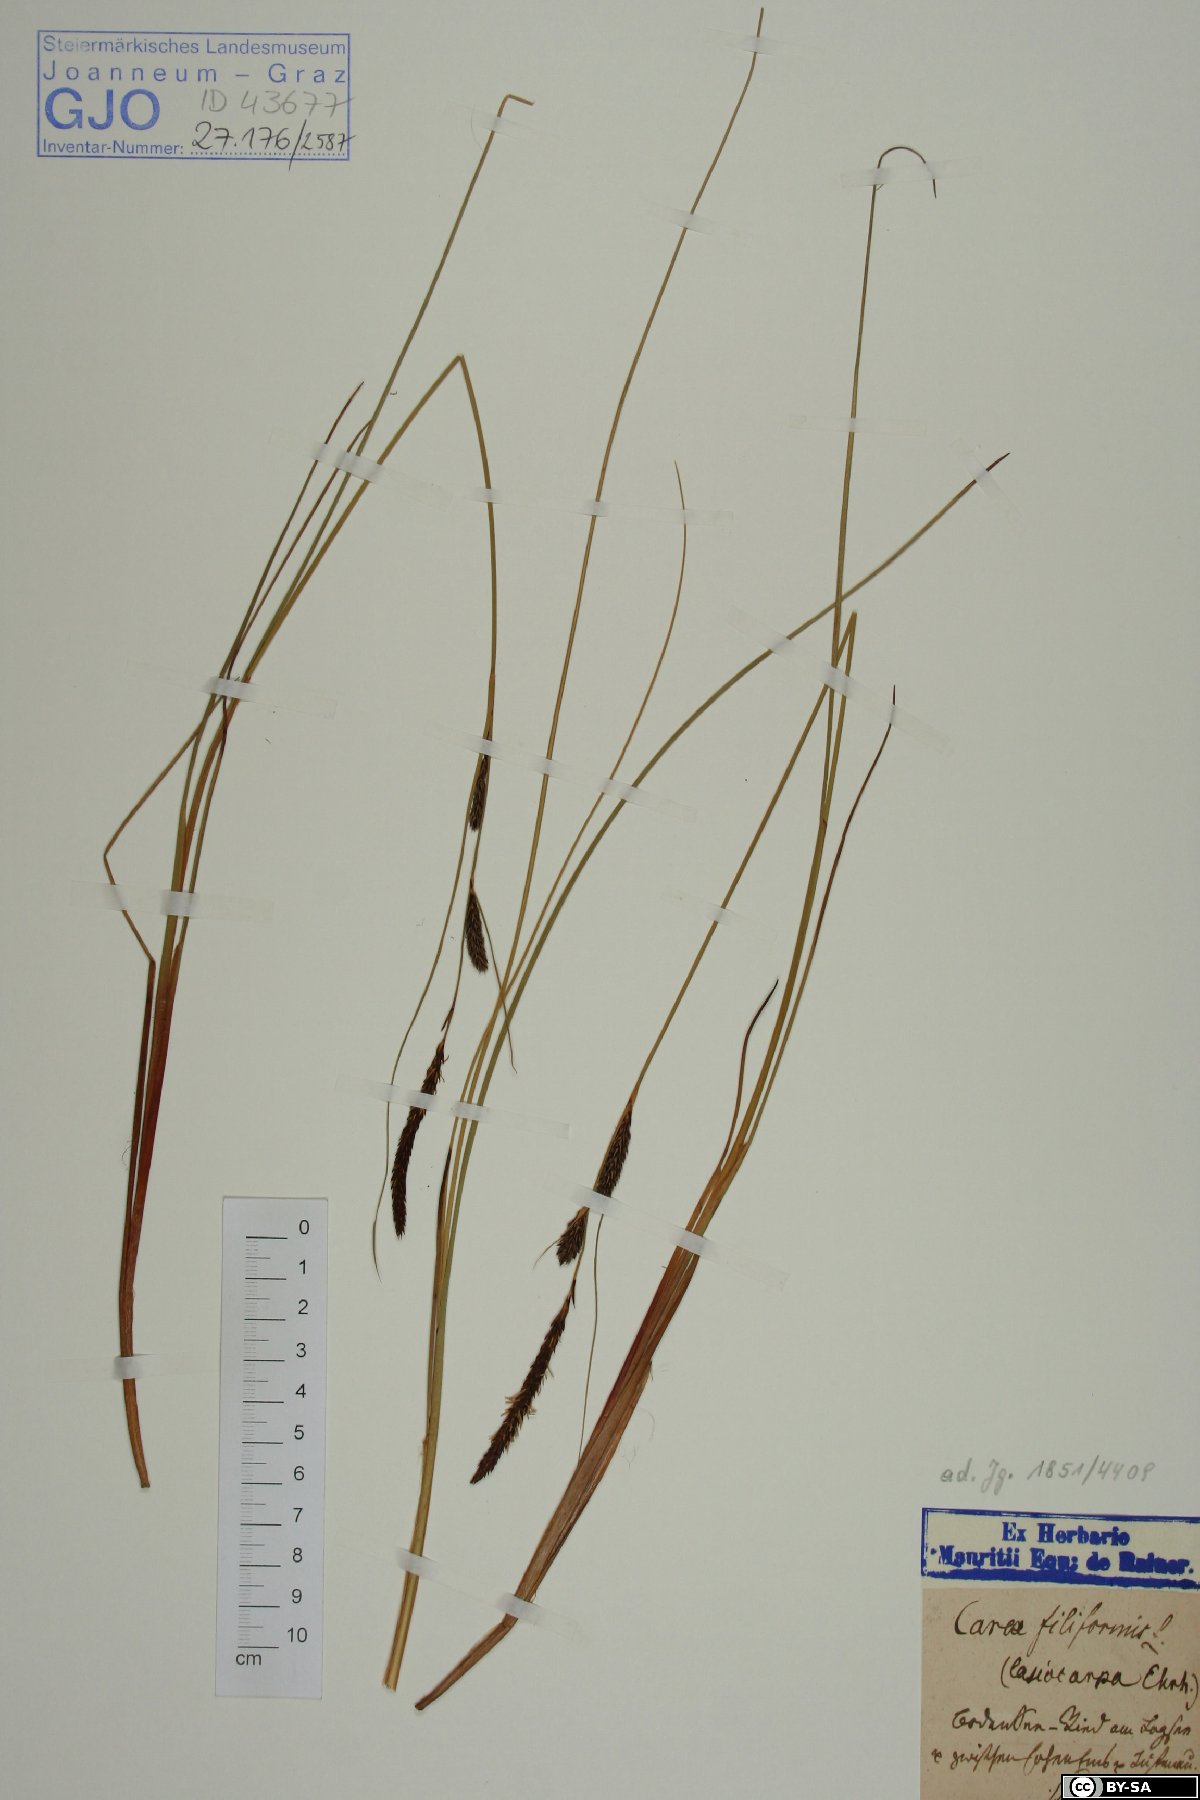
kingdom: Plantae
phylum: Tracheophyta
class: Liliopsida
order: Poales
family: Cyperaceae
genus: Carex
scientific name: Carex montana
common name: Soft-leaved sedge
